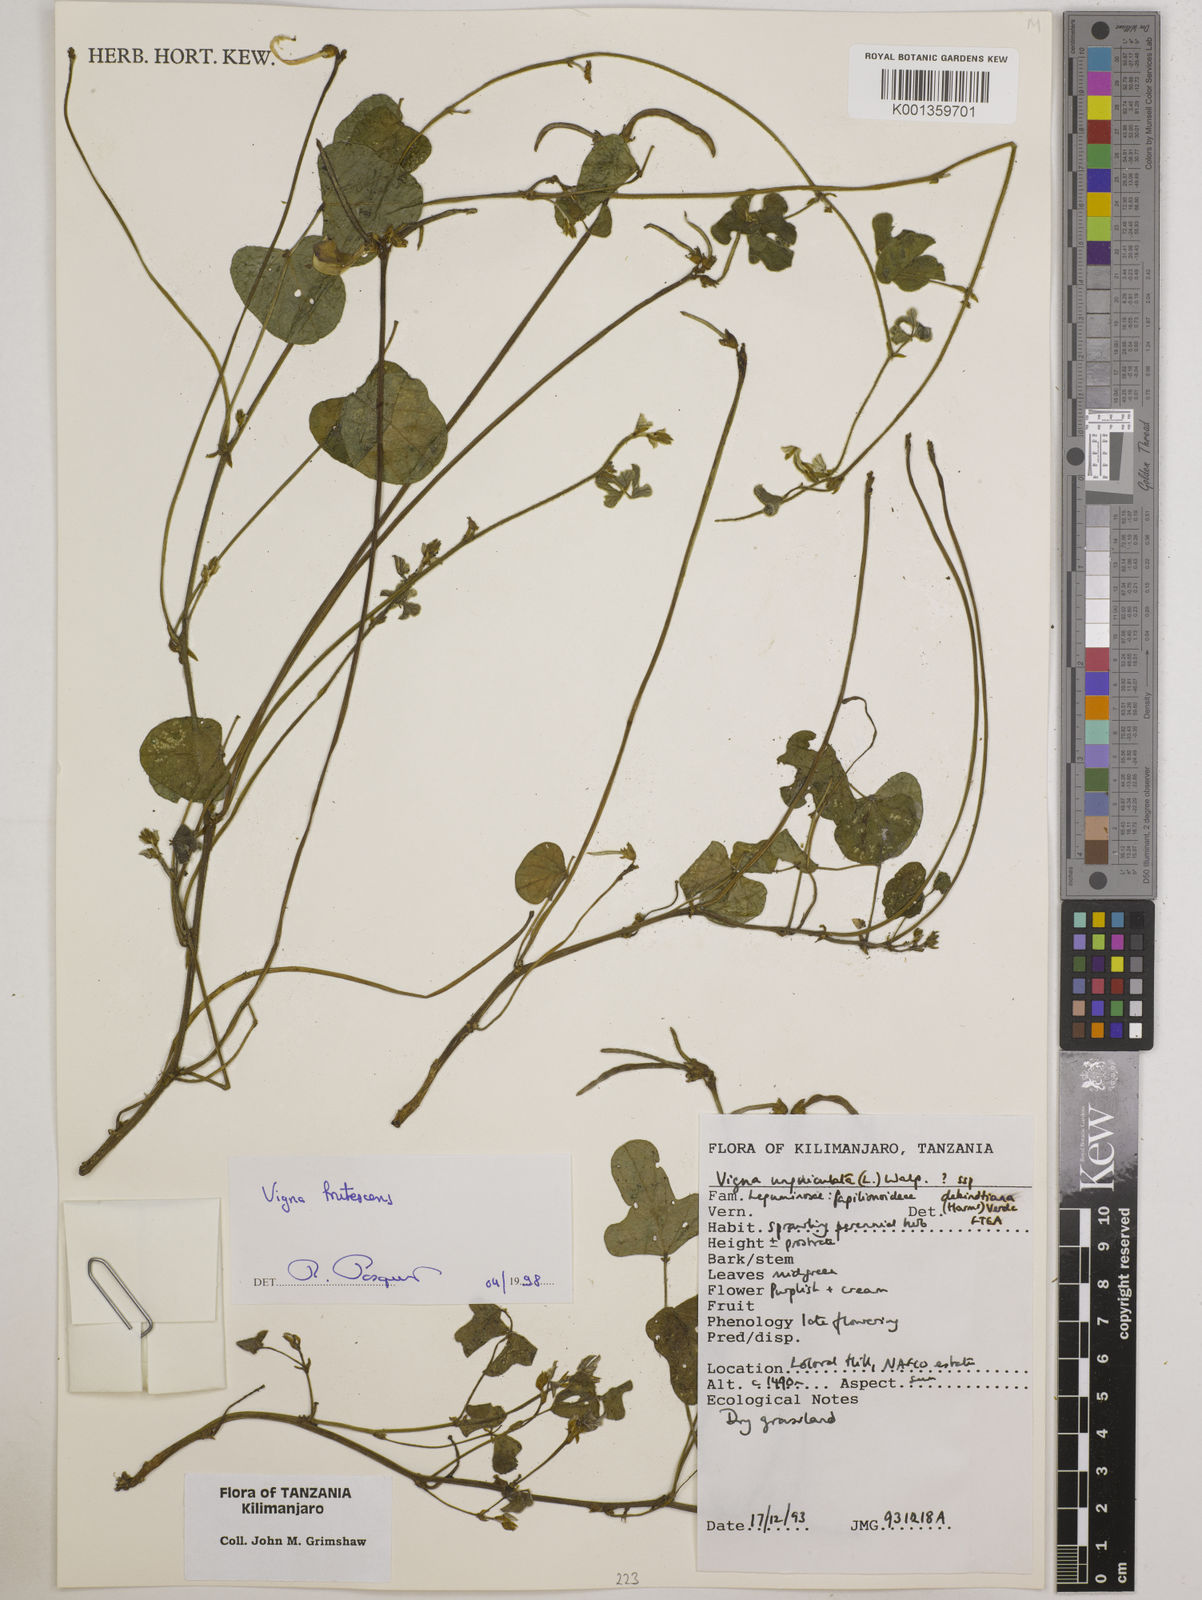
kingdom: Plantae
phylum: Tracheophyta
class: Magnoliopsida
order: Fabales
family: Fabaceae
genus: Vigna
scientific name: Vigna frutescens
